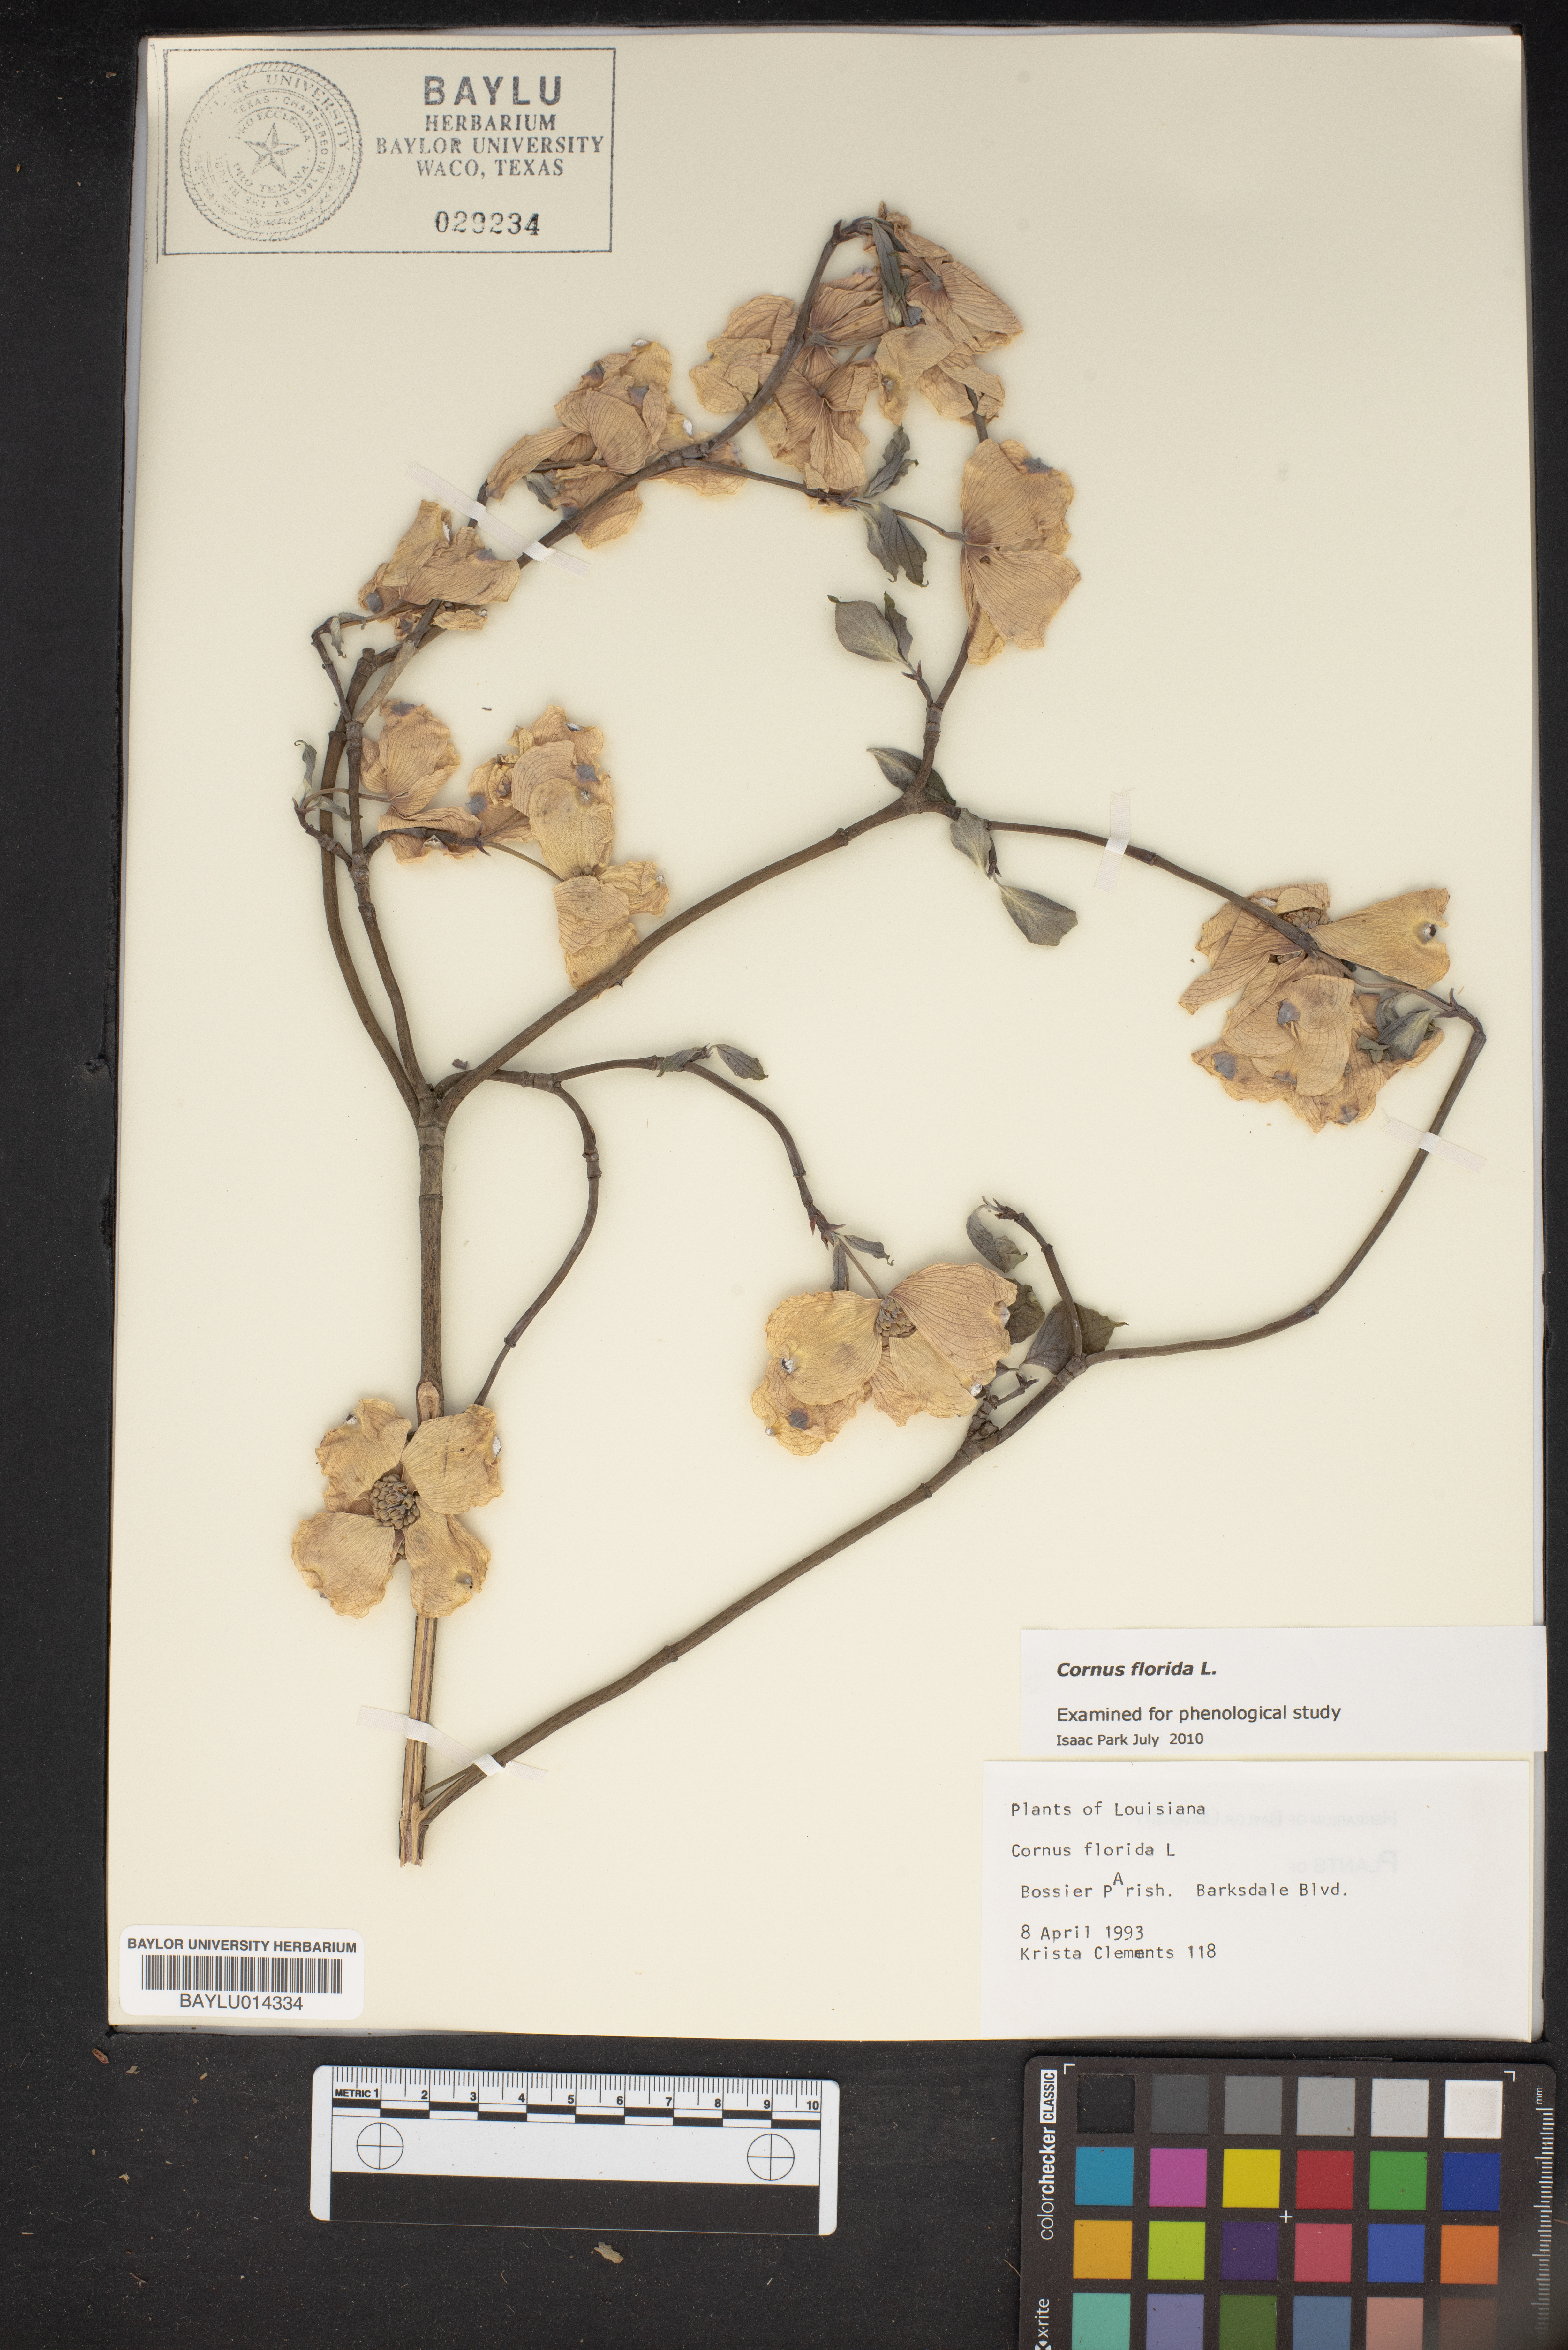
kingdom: Plantae
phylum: Tracheophyta
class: Magnoliopsida
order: Cornales
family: Cornaceae
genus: Cornus
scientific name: Cornus florida
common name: Flowering dogwood
